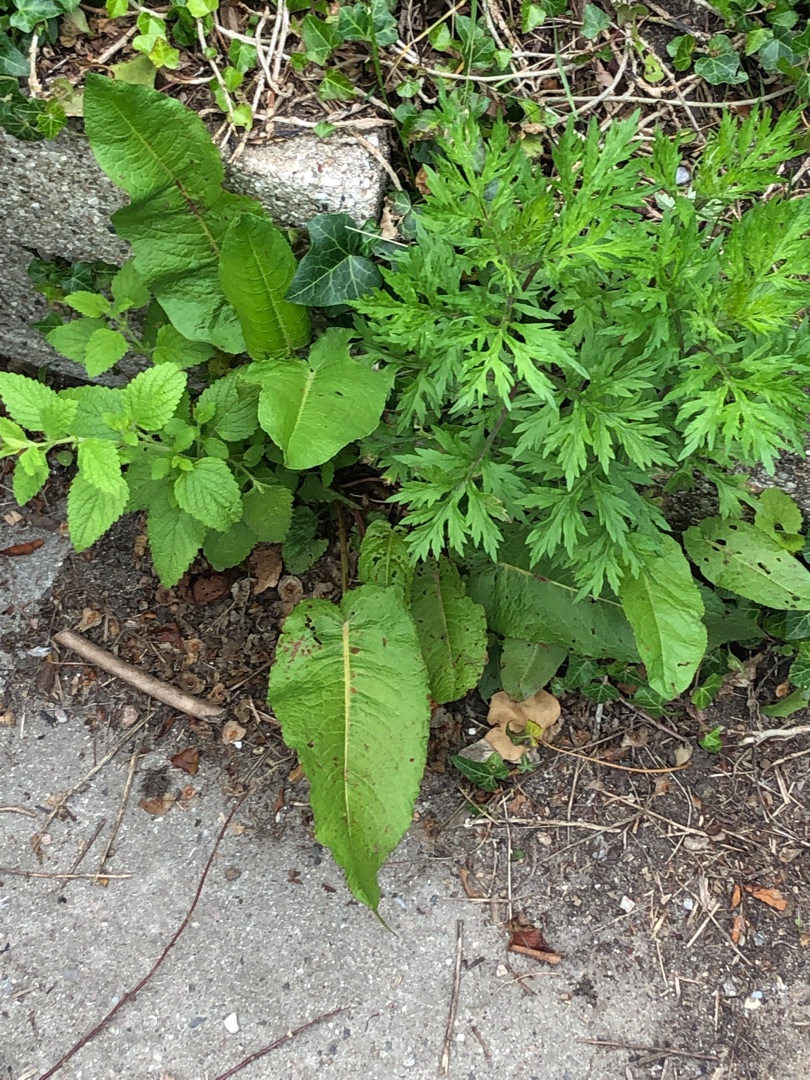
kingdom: Plantae
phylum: Tracheophyta
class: Magnoliopsida
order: Asterales
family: Asteraceae
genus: Artemisia
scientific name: Artemisia vulgaris
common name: Grå-bynke
